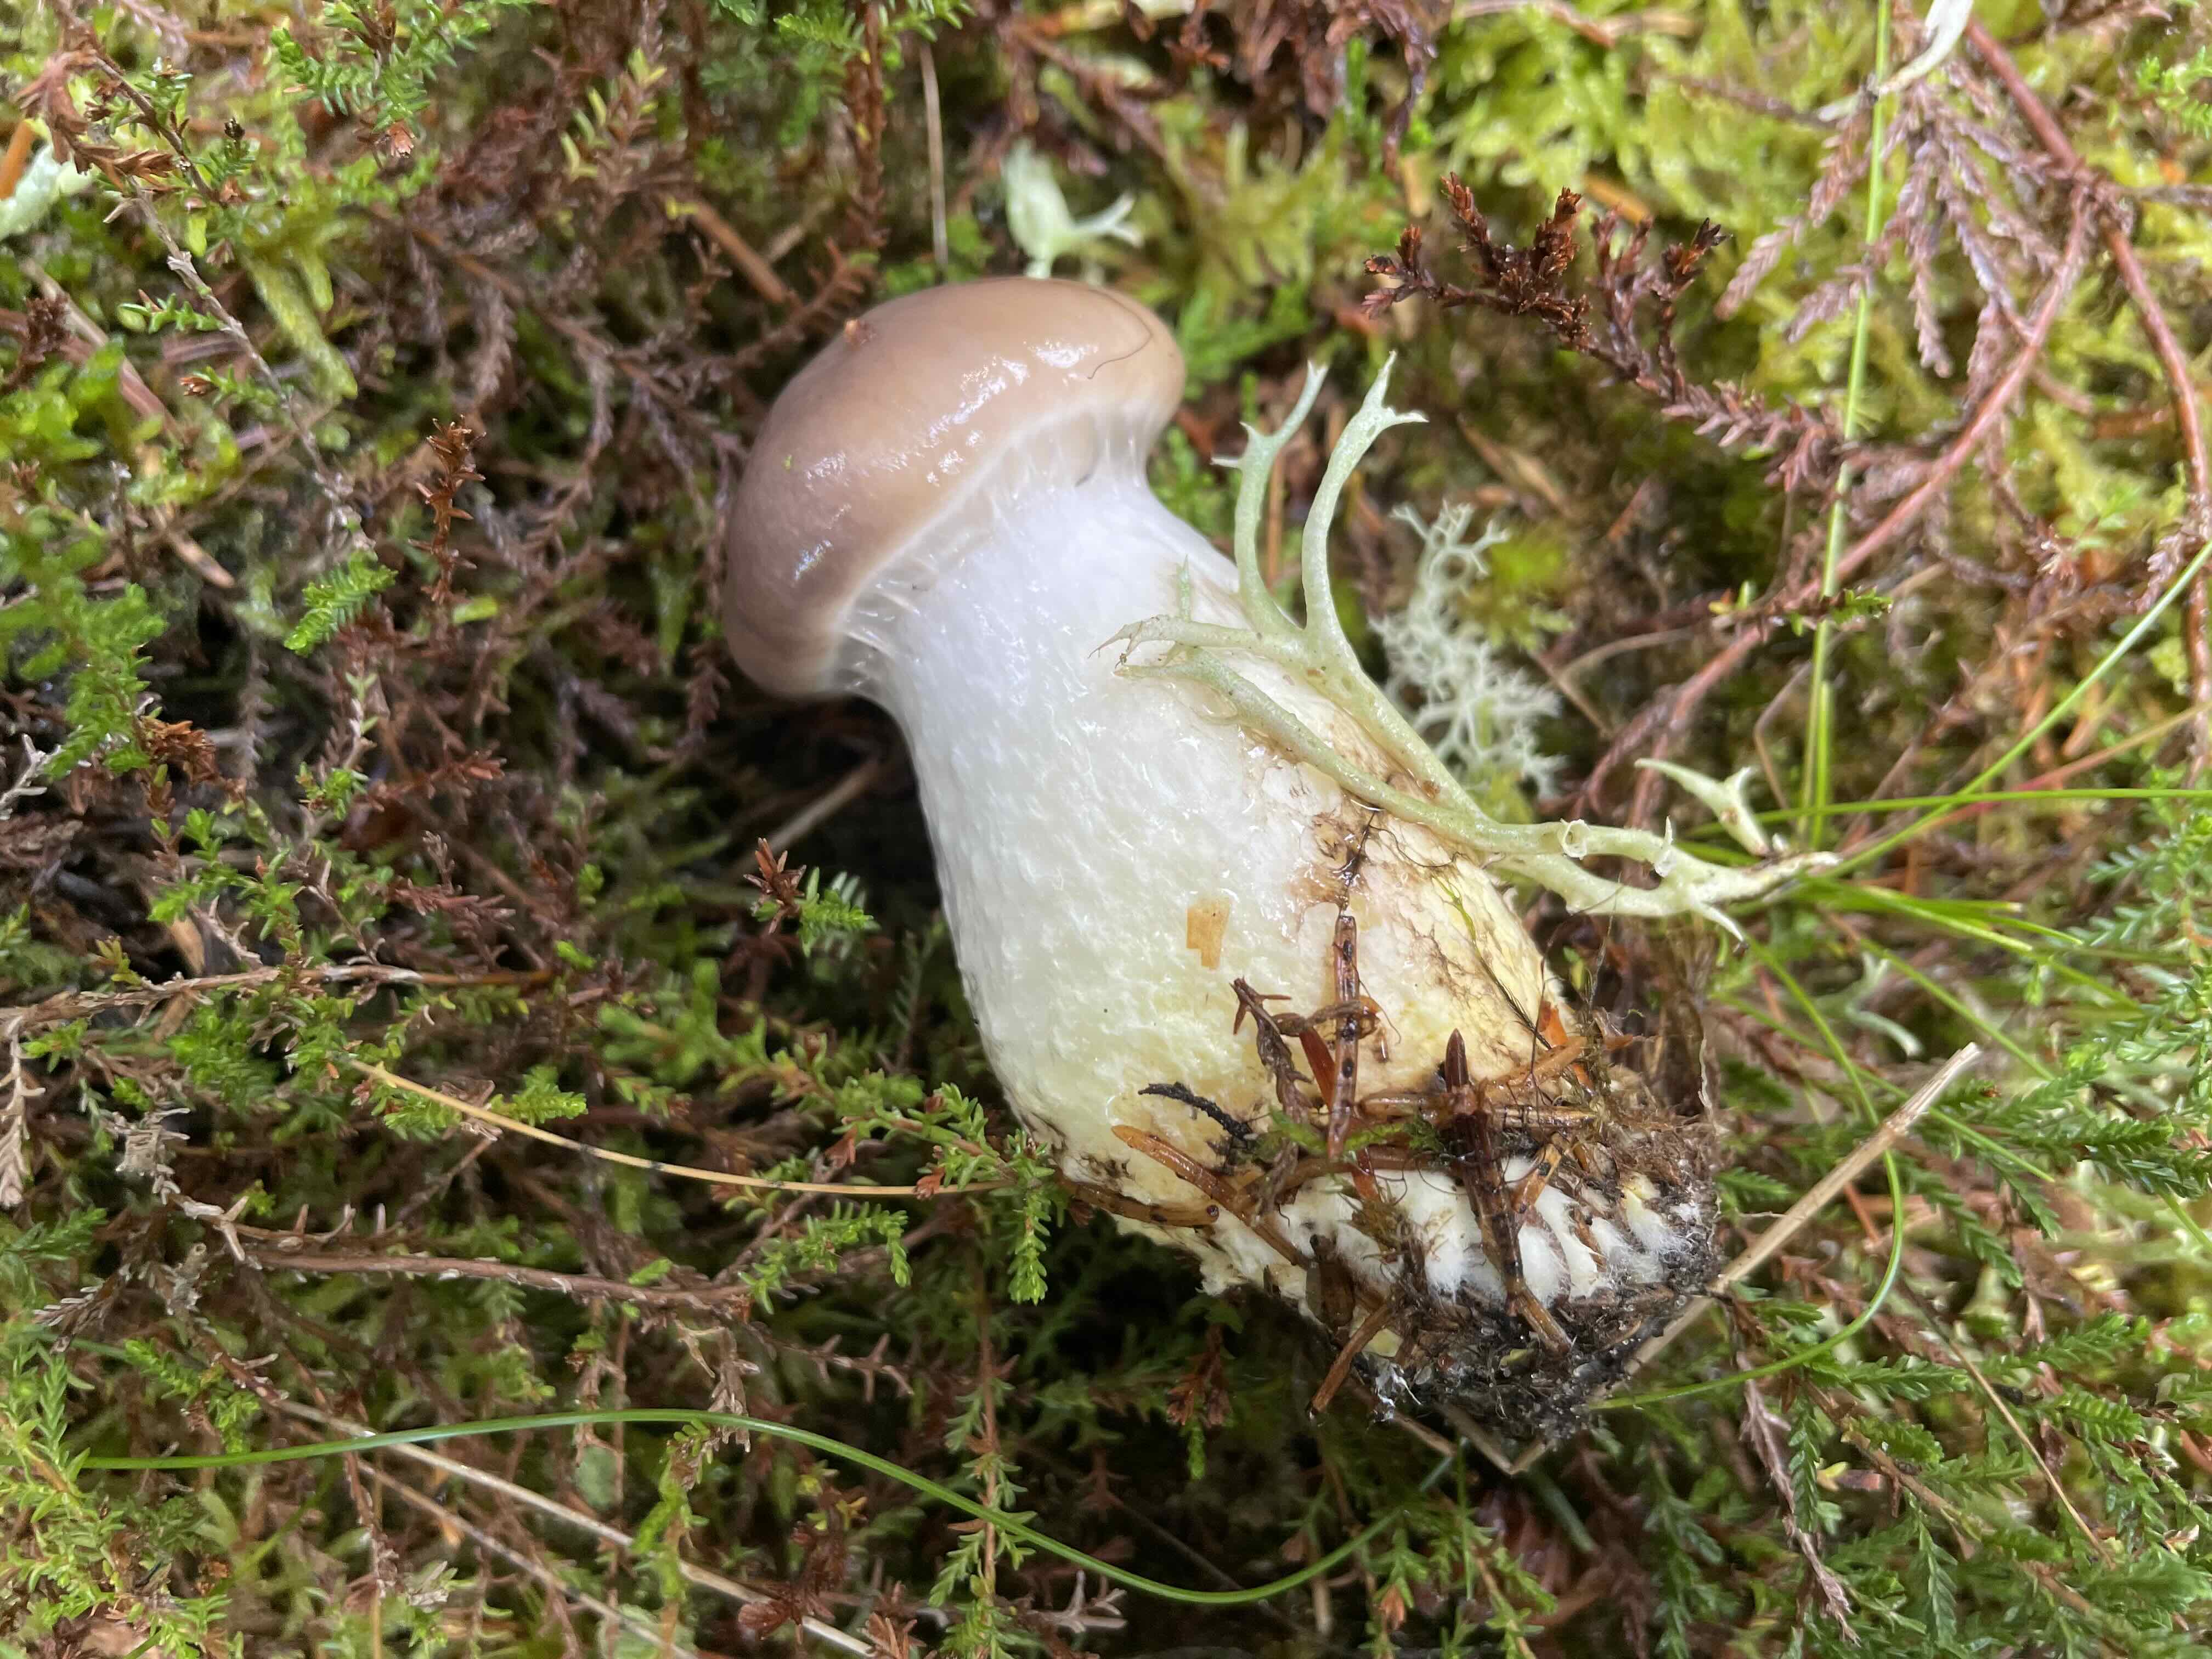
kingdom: Fungi
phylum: Basidiomycota
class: Agaricomycetes
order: Boletales
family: Gomphidiaceae
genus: Gomphidius
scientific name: Gomphidius glutinosus
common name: grå slimslør
